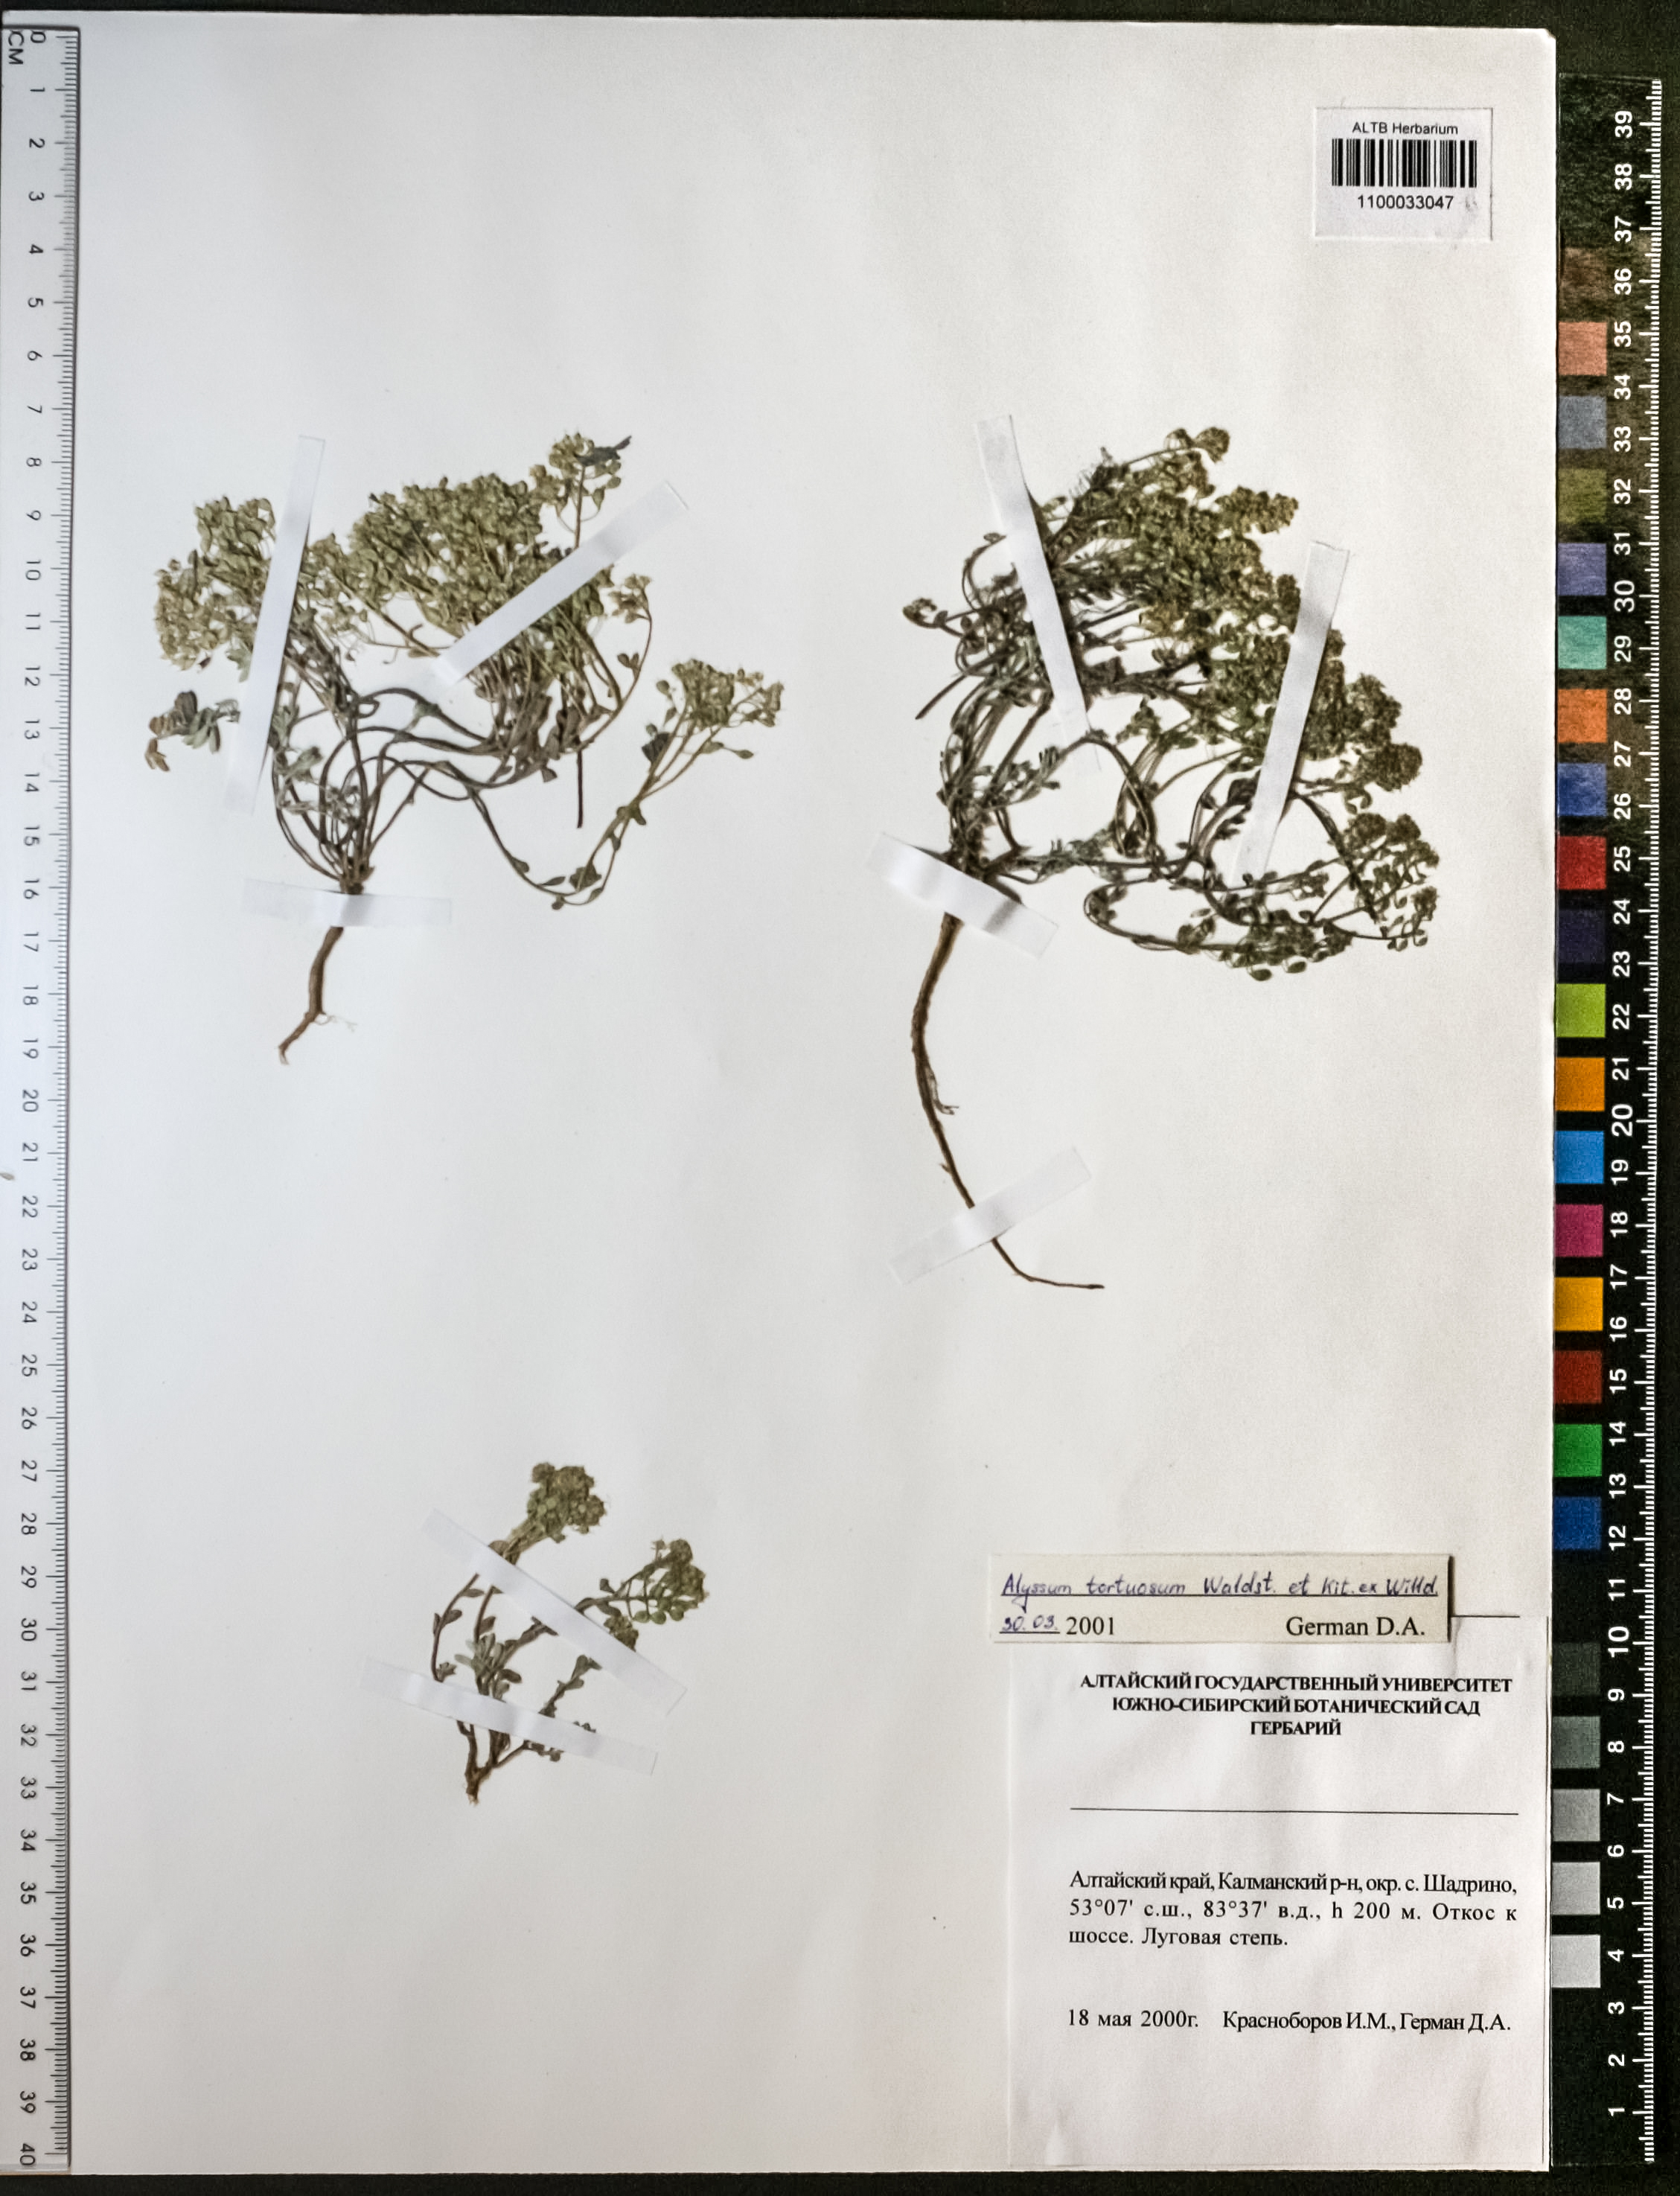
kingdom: Plantae
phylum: Tracheophyta
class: Magnoliopsida
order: Brassicales
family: Brassicaceae
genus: Odontarrhena
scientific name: Odontarrhena alpestris
